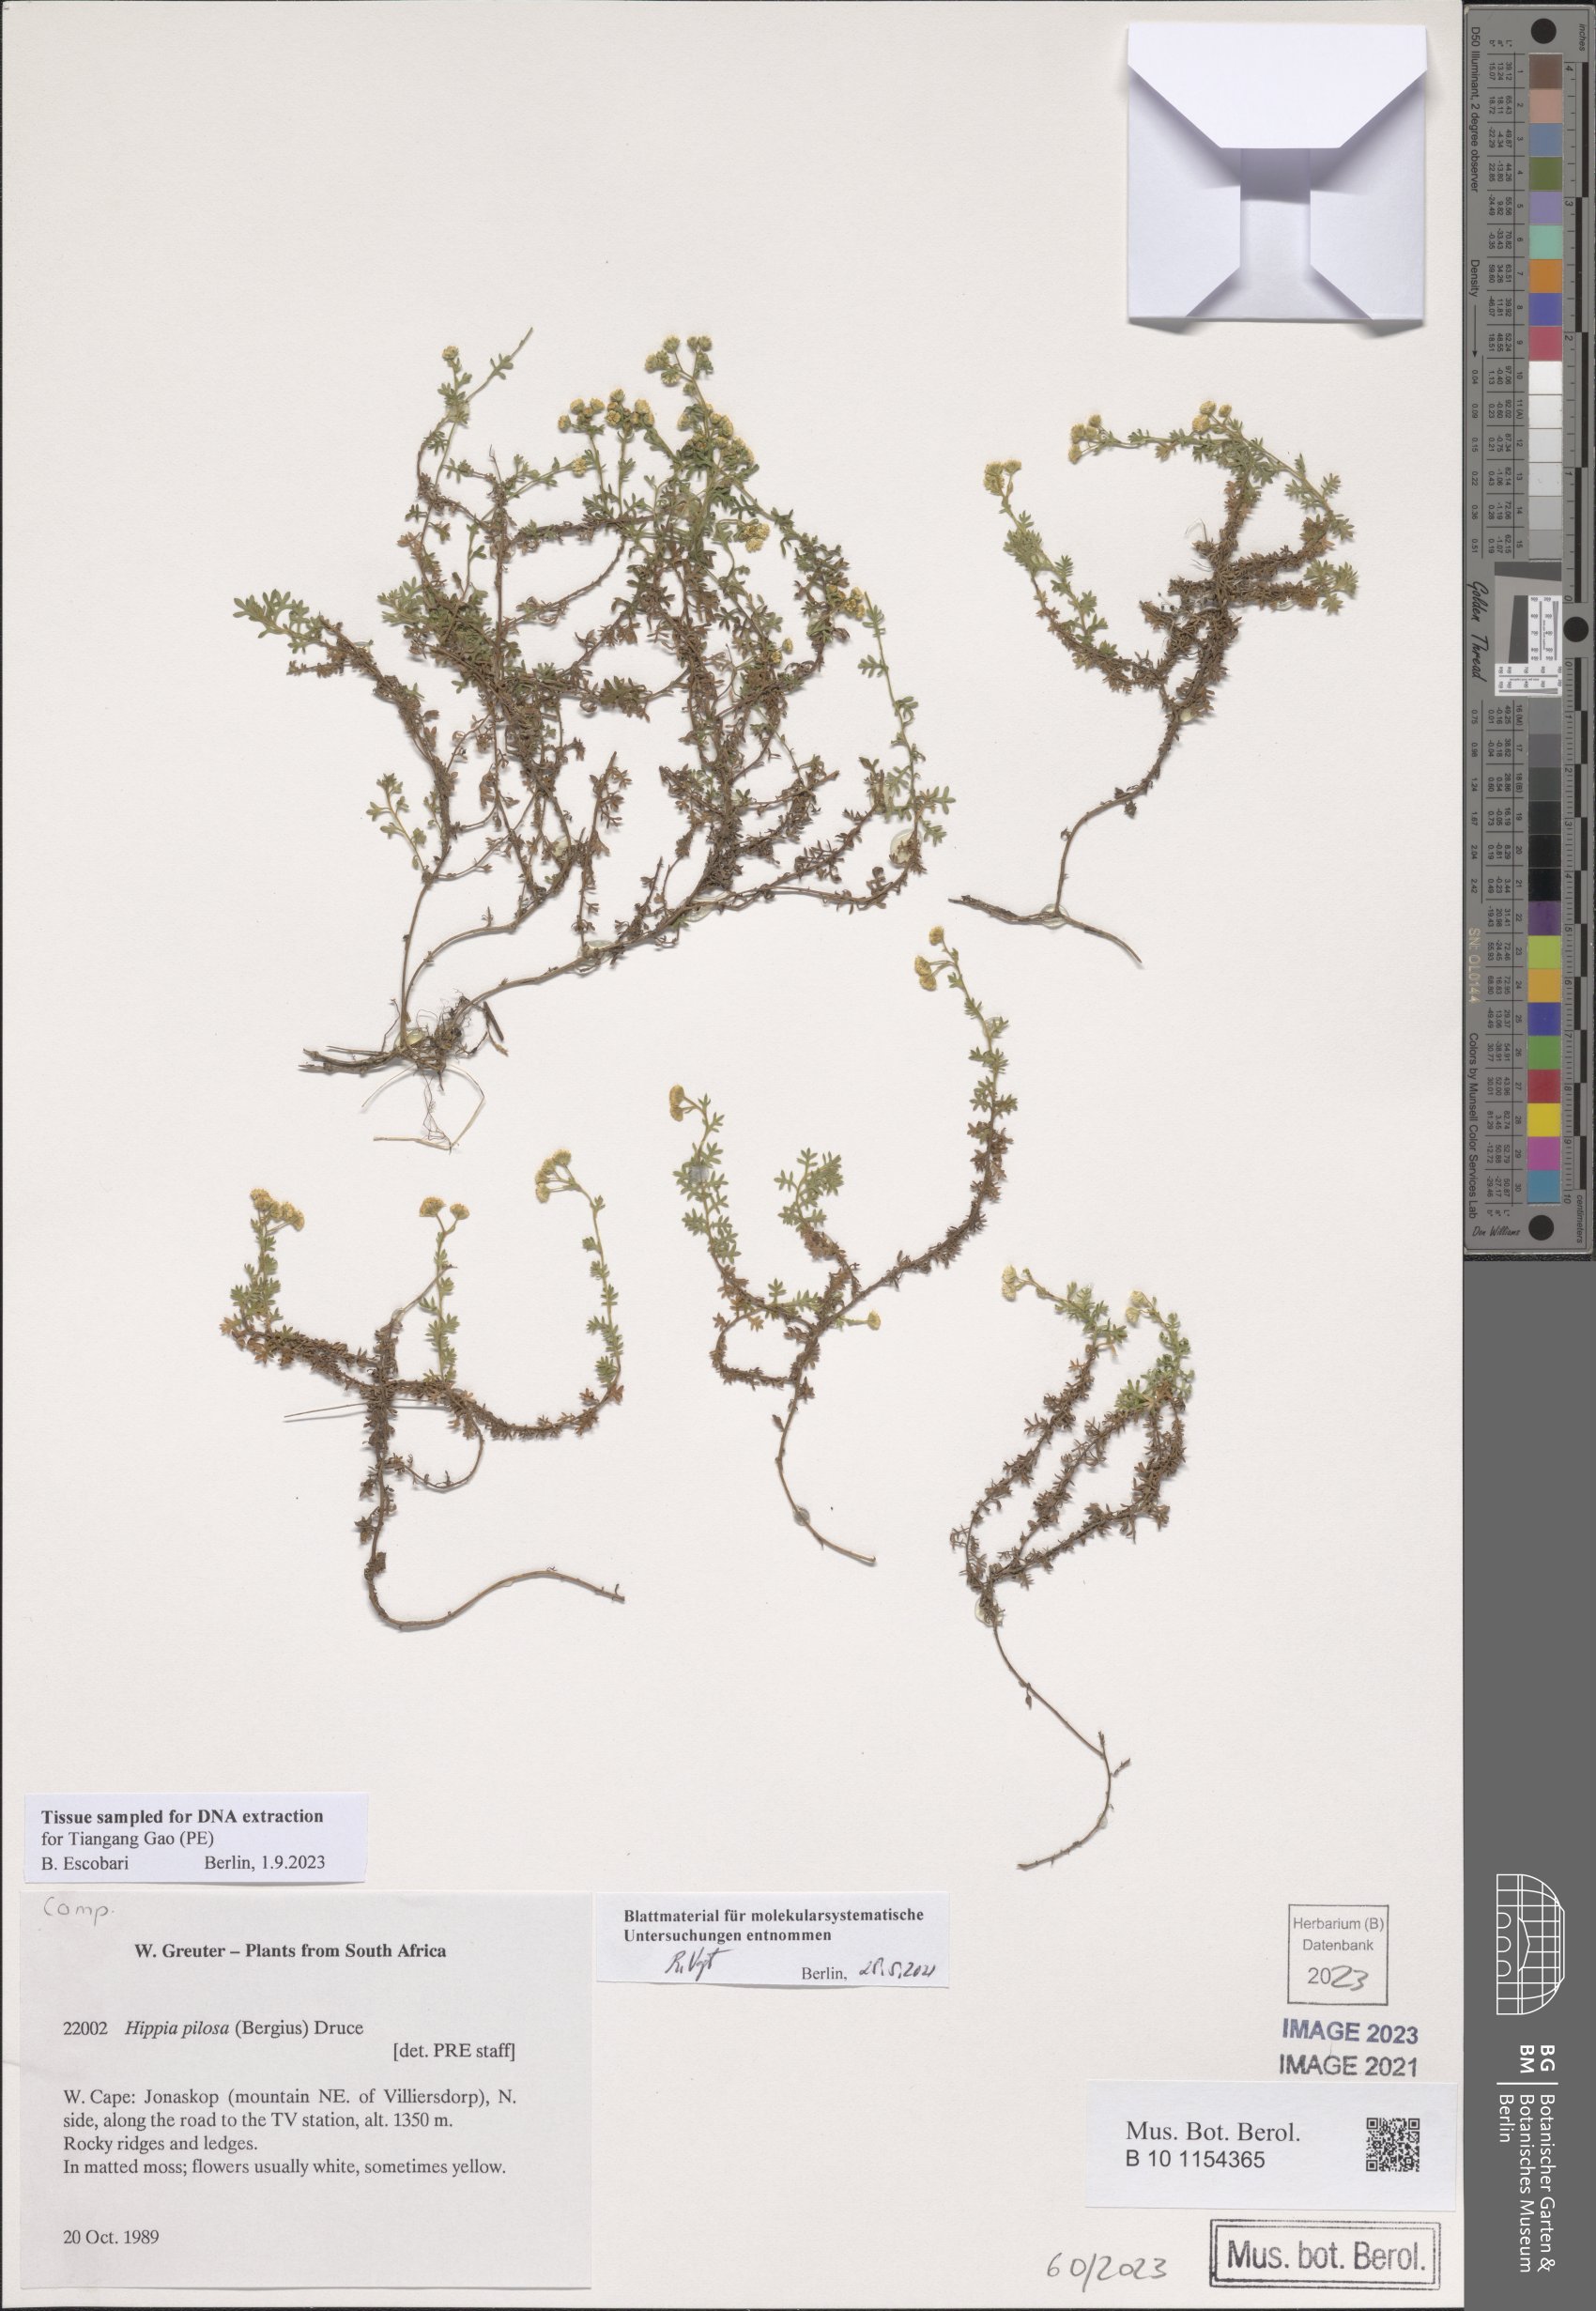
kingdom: Plantae
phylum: Tracheophyta
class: Magnoliopsida
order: Asterales
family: Asteraceae
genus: Hippia
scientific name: Hippia pilosa
